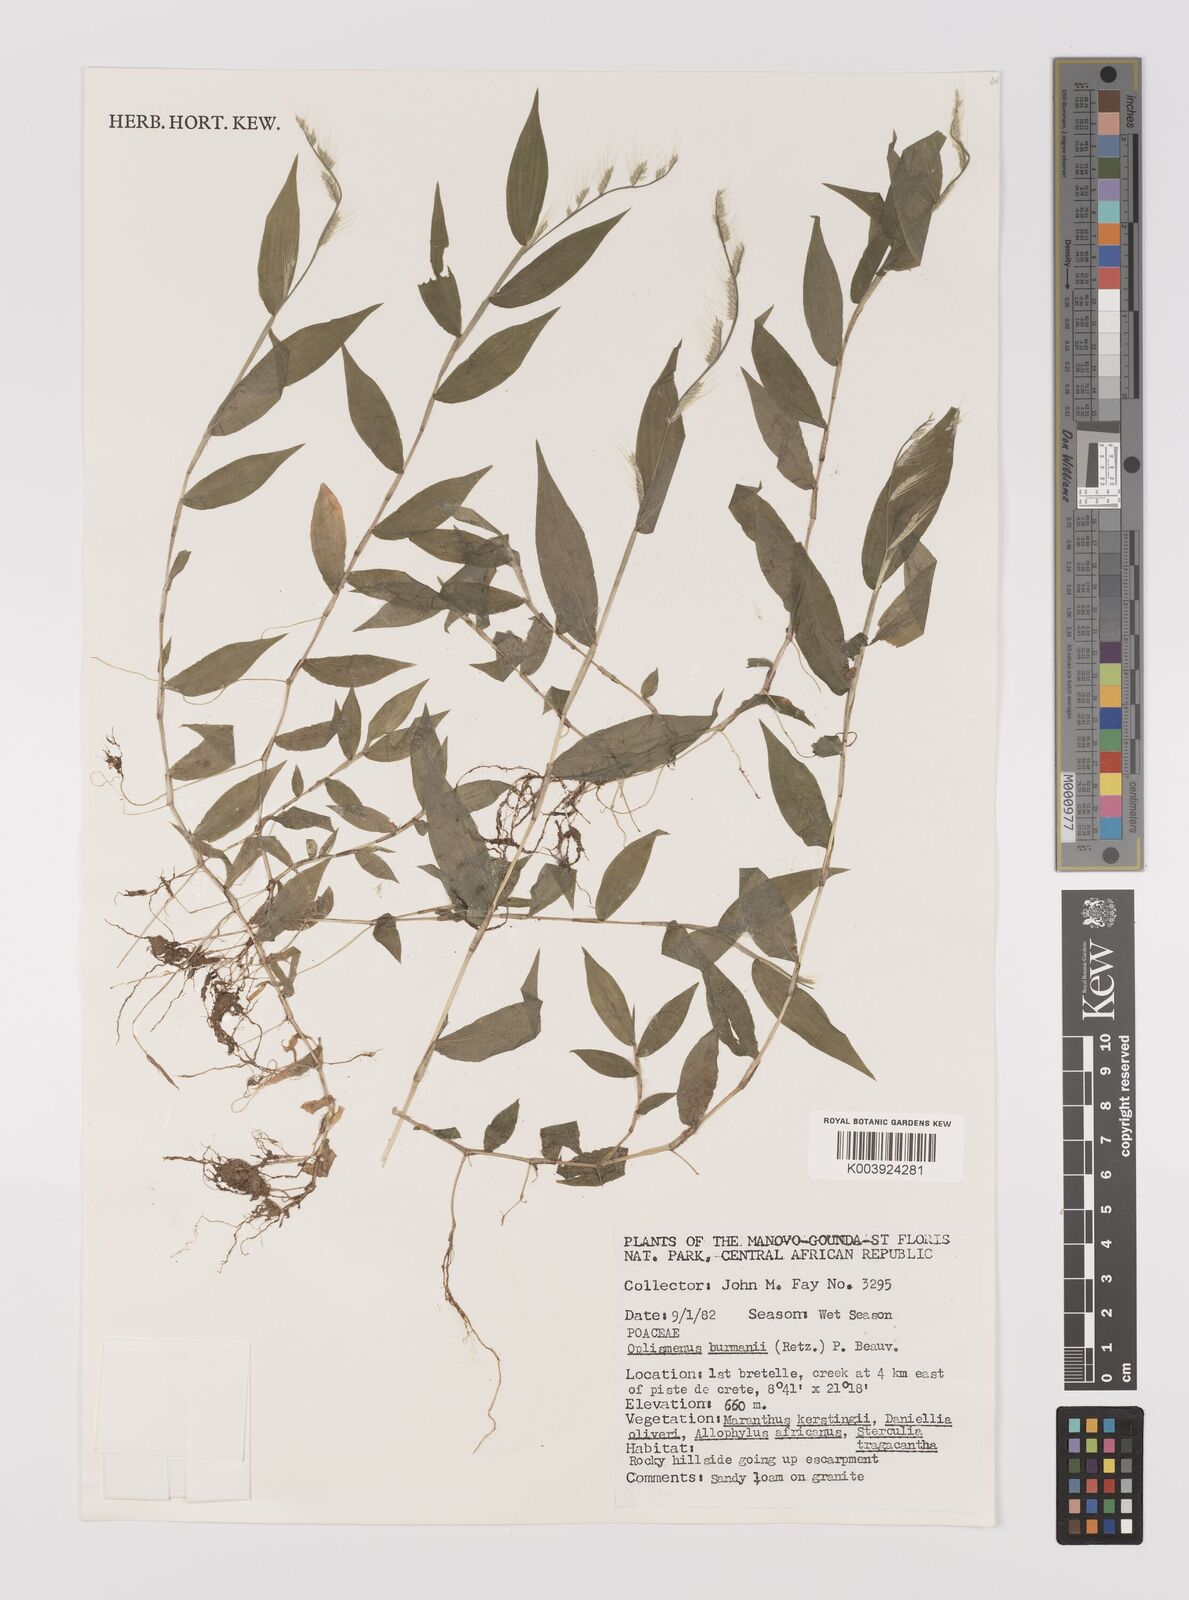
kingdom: Plantae
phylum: Tracheophyta
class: Liliopsida
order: Poales
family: Poaceae
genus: Oplismenus
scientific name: Oplismenus burmanni
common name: Burmann's basketgrass
